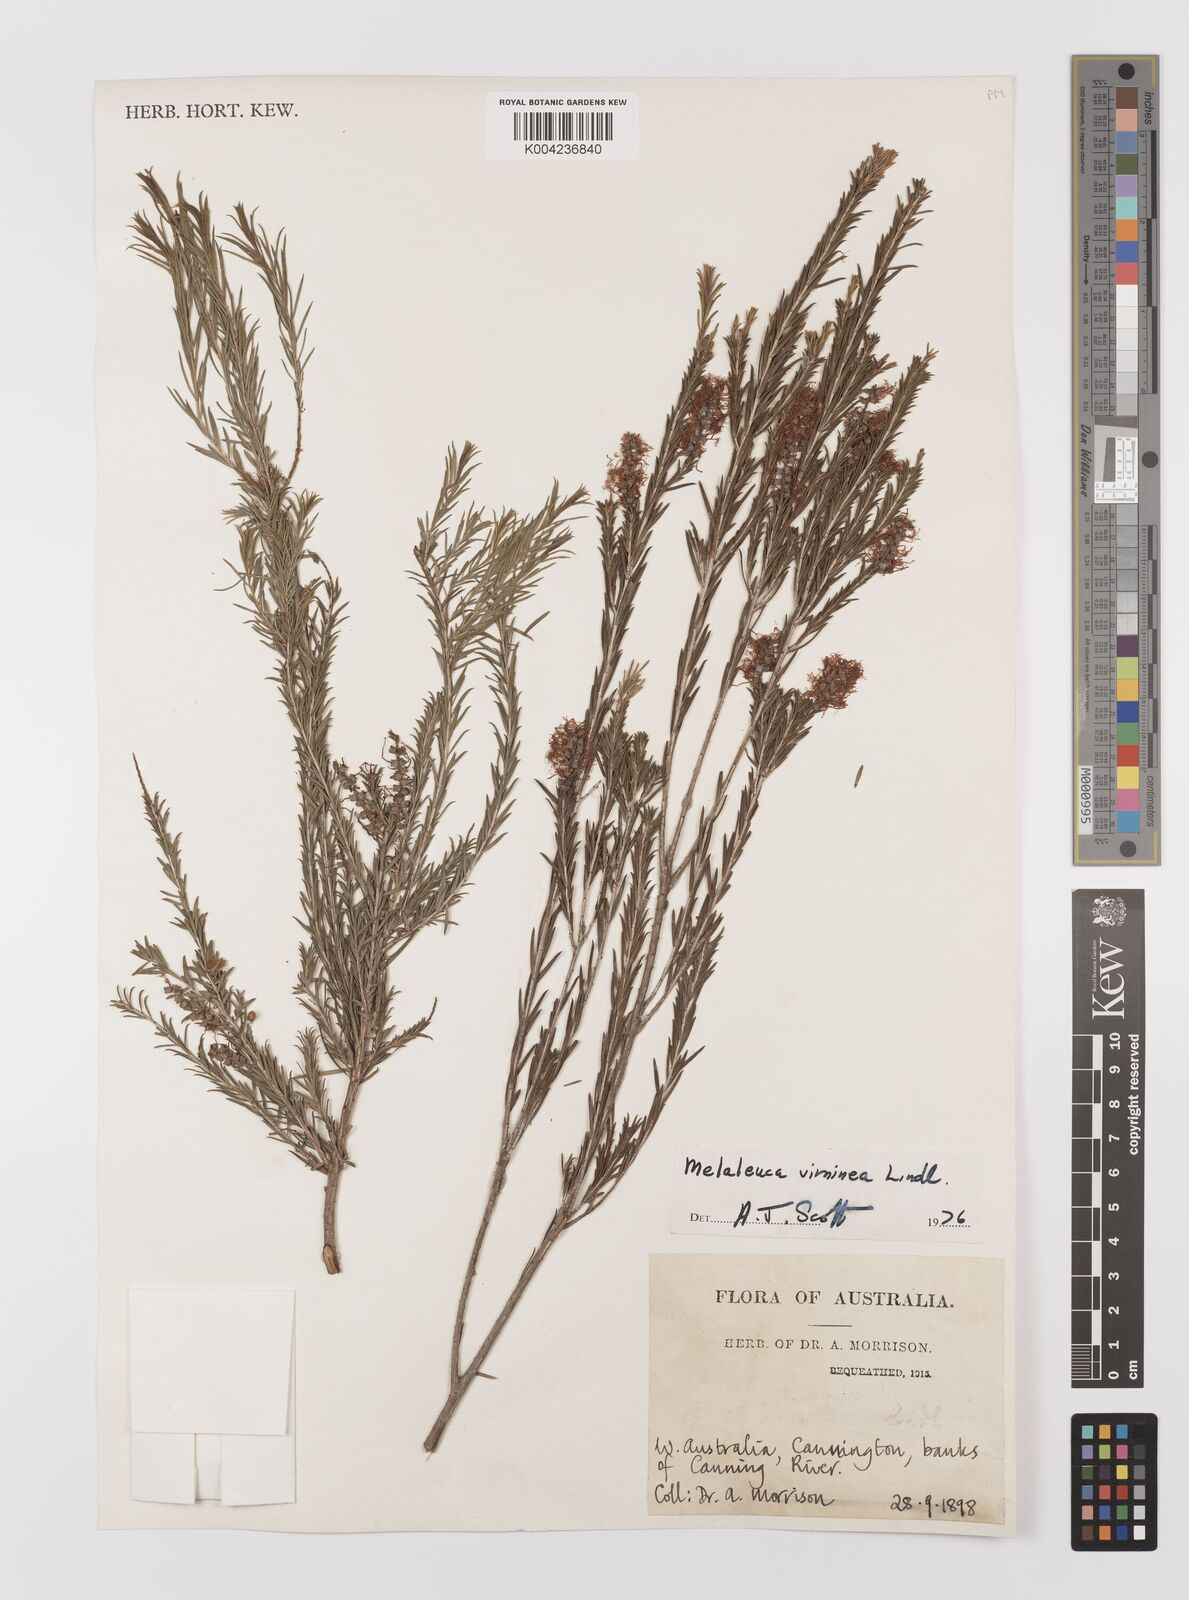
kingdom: Plantae
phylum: Tracheophyta
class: Magnoliopsida
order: Myrtales
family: Myrtaceae
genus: Melaleuca
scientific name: Melaleuca viminea
